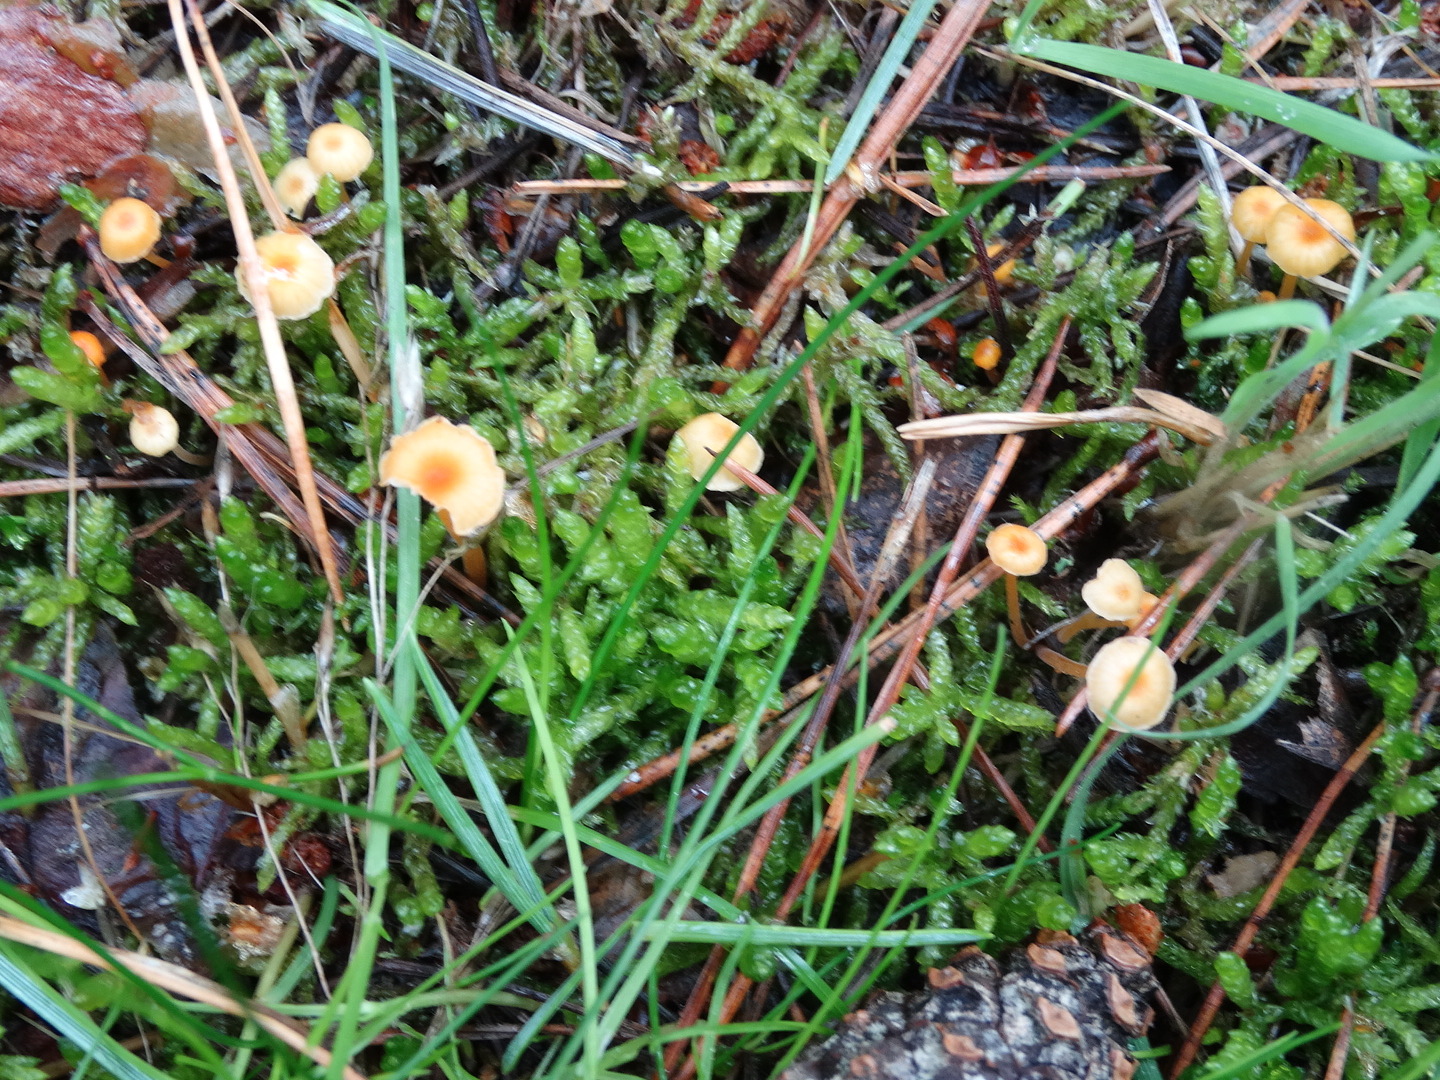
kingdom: Fungi
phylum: Basidiomycota
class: Agaricomycetes
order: Hymenochaetales
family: Rickenellaceae
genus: Rickenella
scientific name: Rickenella fibula
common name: orange mosnavlehat
